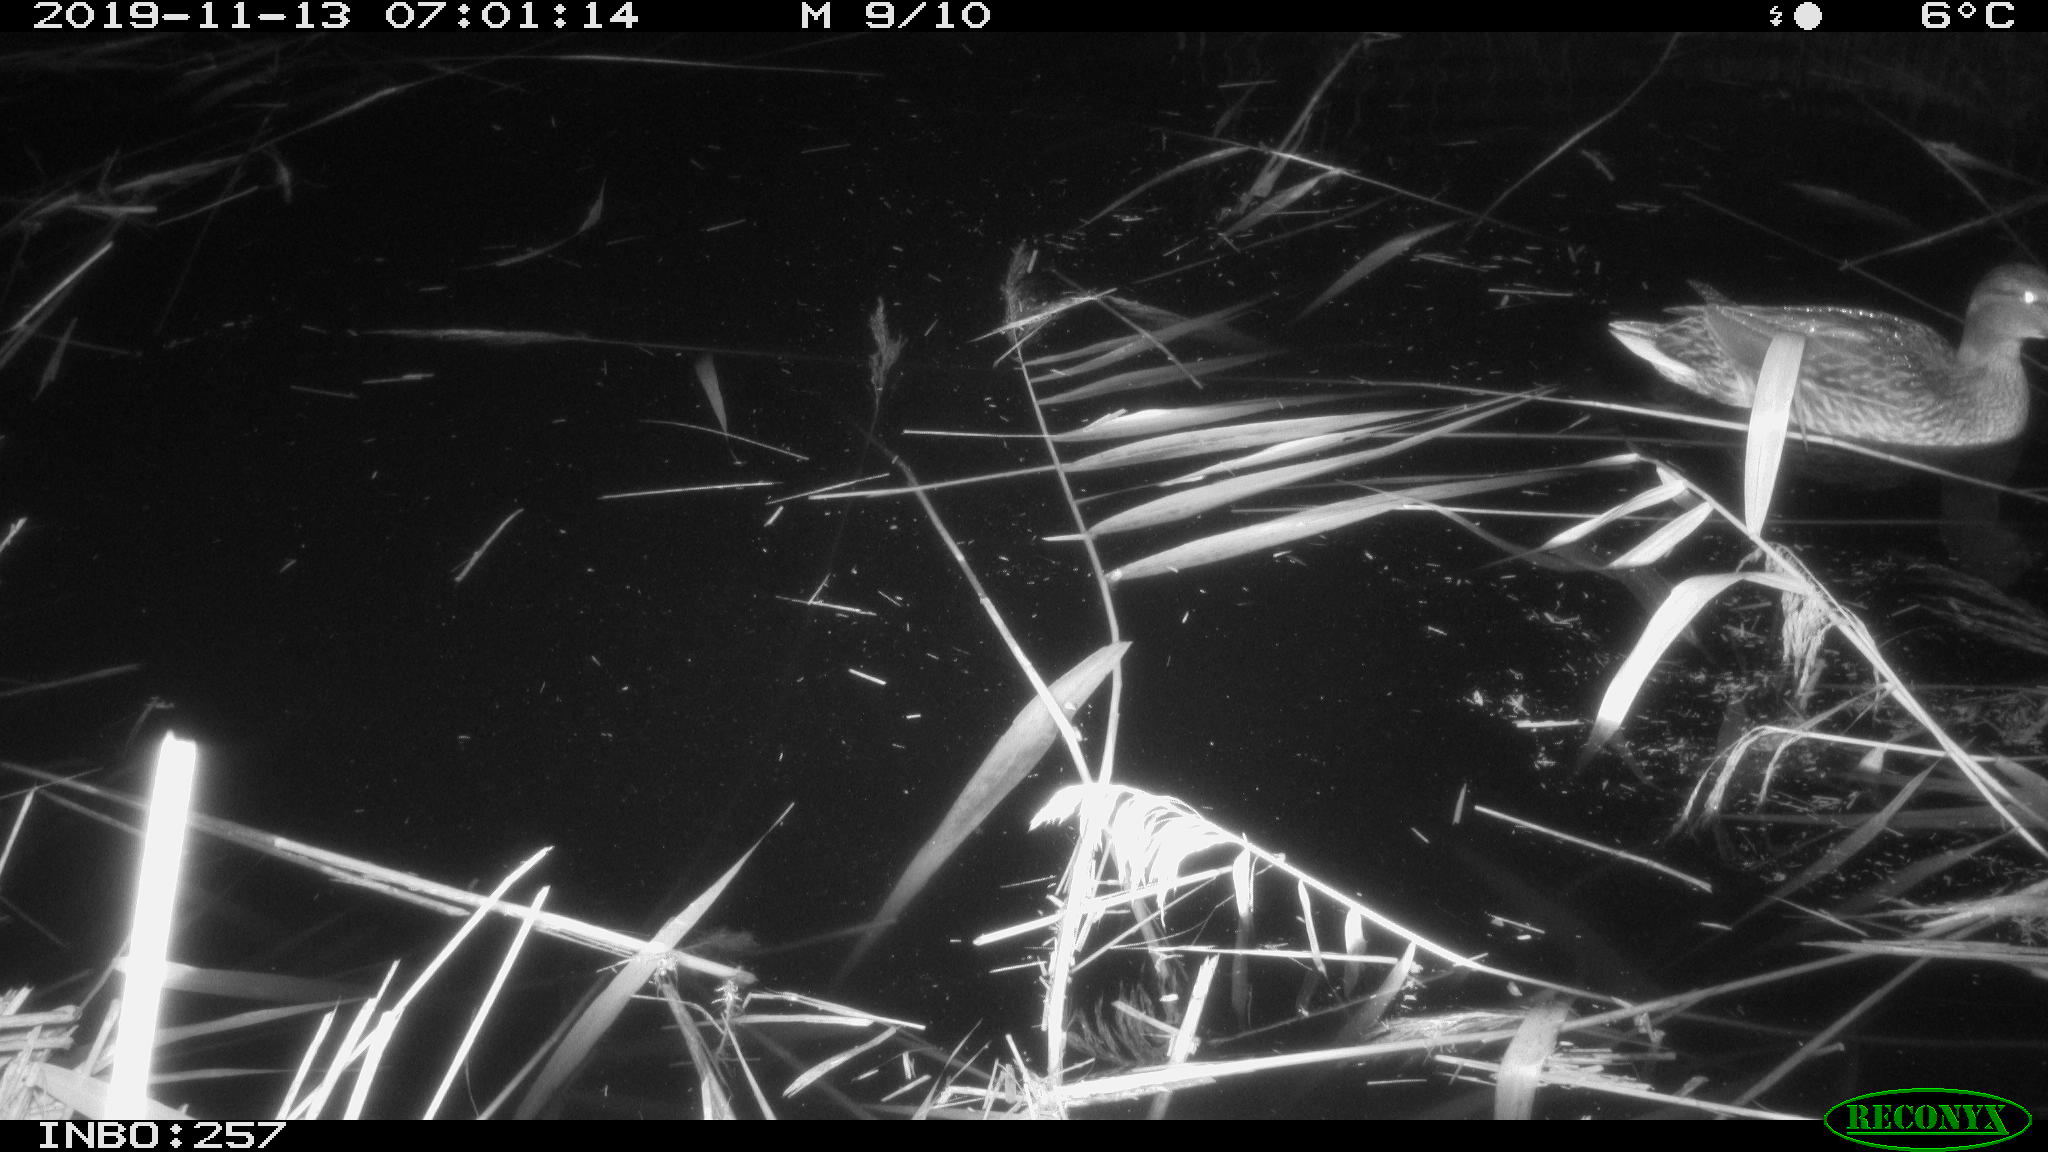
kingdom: Animalia
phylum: Chordata
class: Aves
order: Anseriformes
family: Anatidae
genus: Anas
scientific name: Anas platyrhynchos
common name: Mallard
